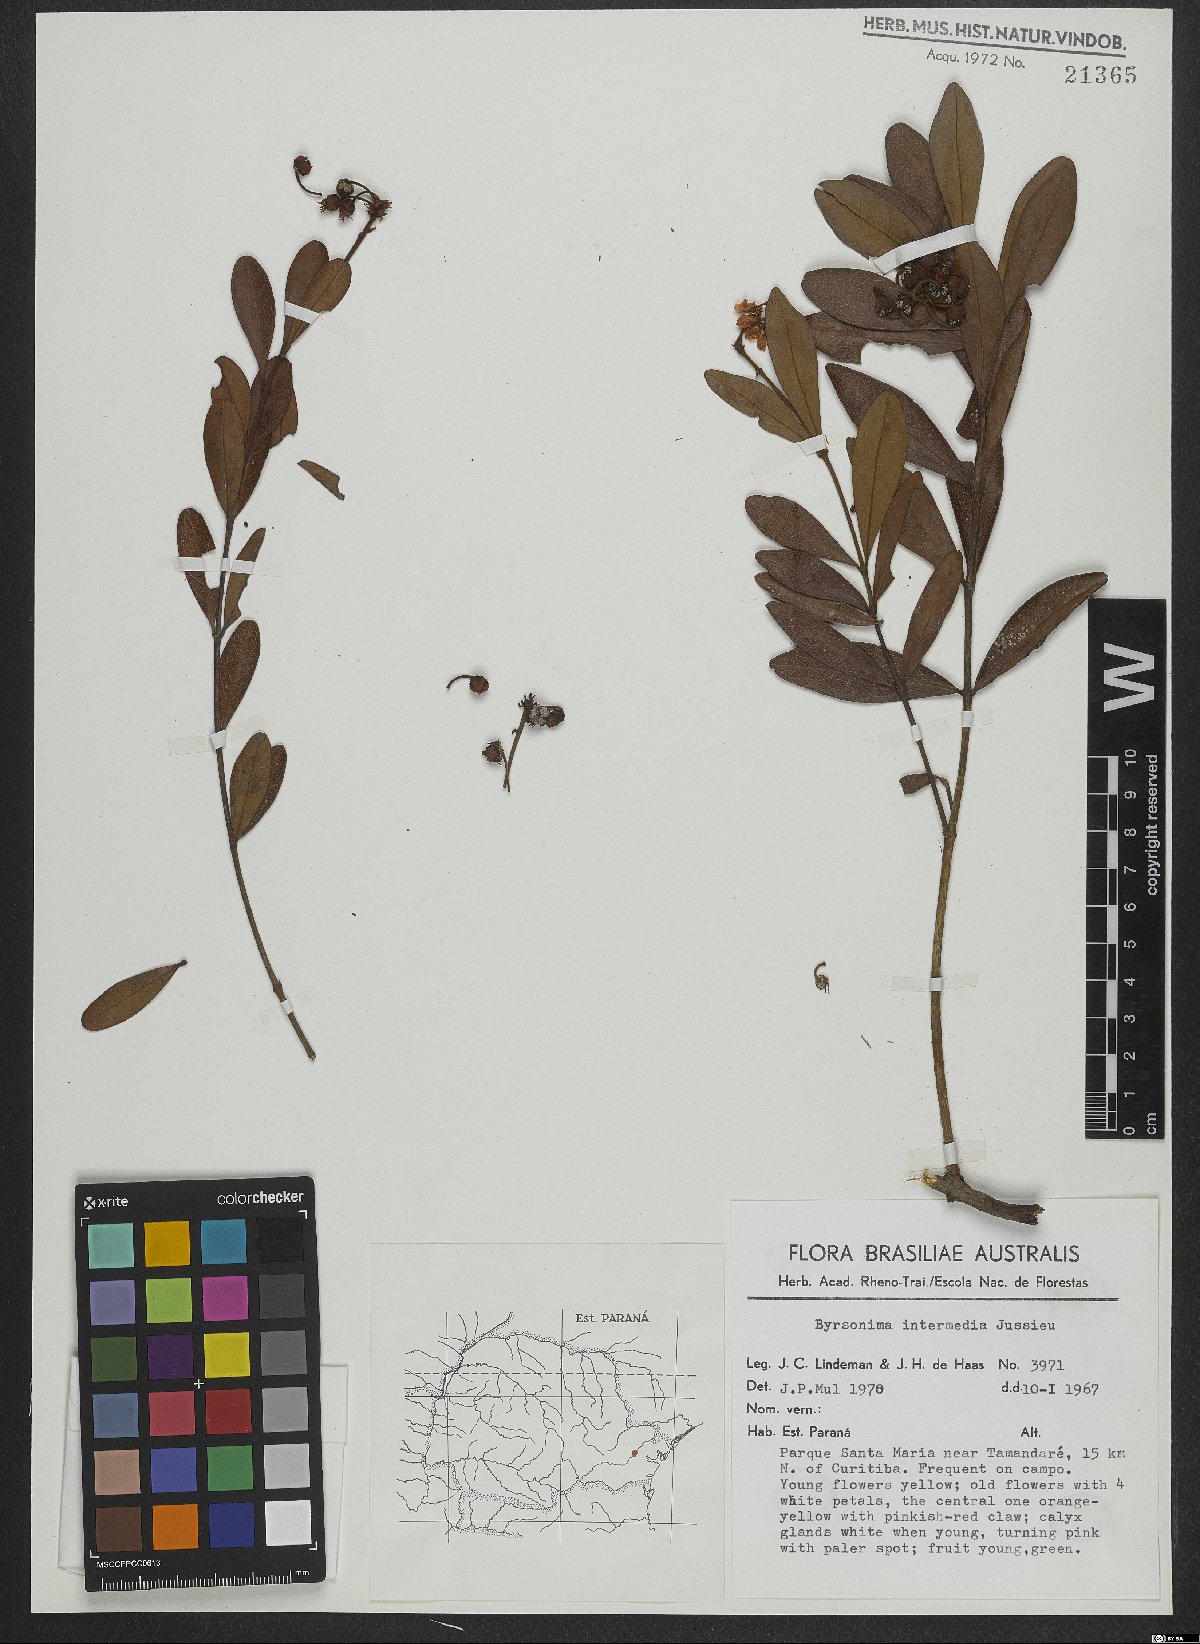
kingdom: Plantae
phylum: Tracheophyta
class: Magnoliopsida
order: Malpighiales
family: Malpighiaceae
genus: Byrsonima
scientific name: Byrsonima intermedia
